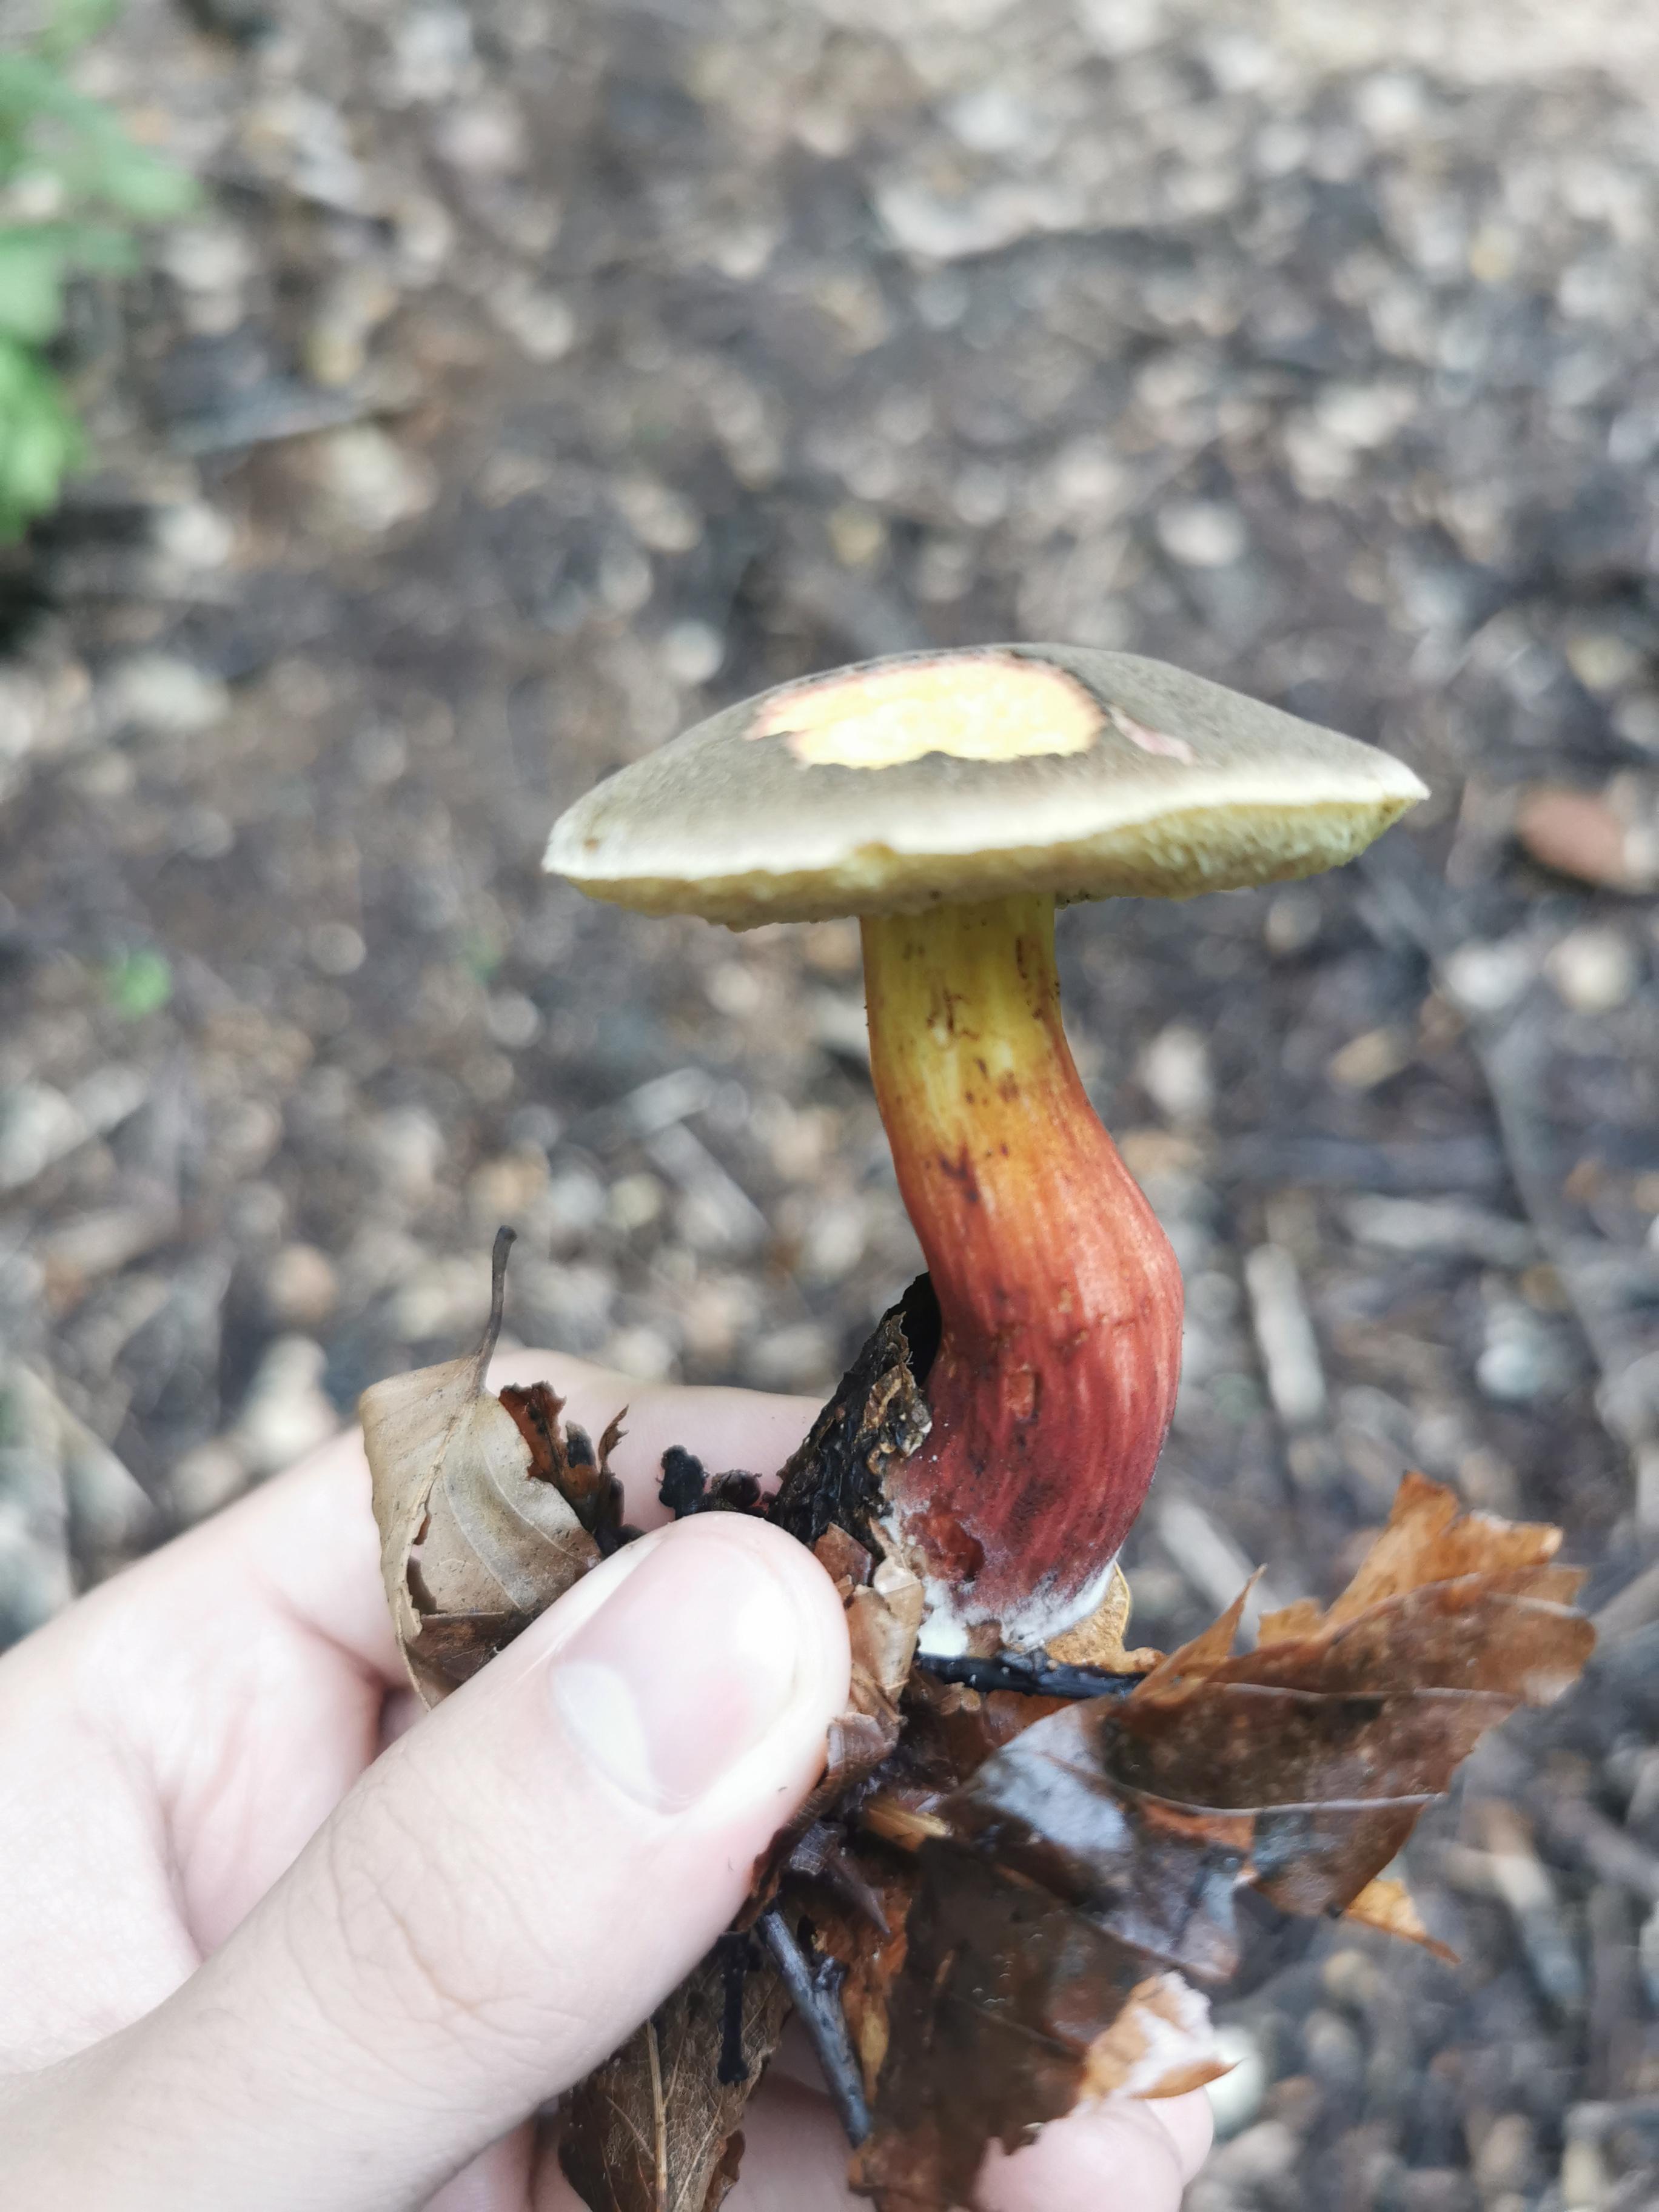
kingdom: Fungi
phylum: Basidiomycota
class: Agaricomycetes
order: Boletales
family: Boletaceae
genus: Xerocomellus
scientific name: Xerocomellus cisalpinus
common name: finsprukken rørhat
